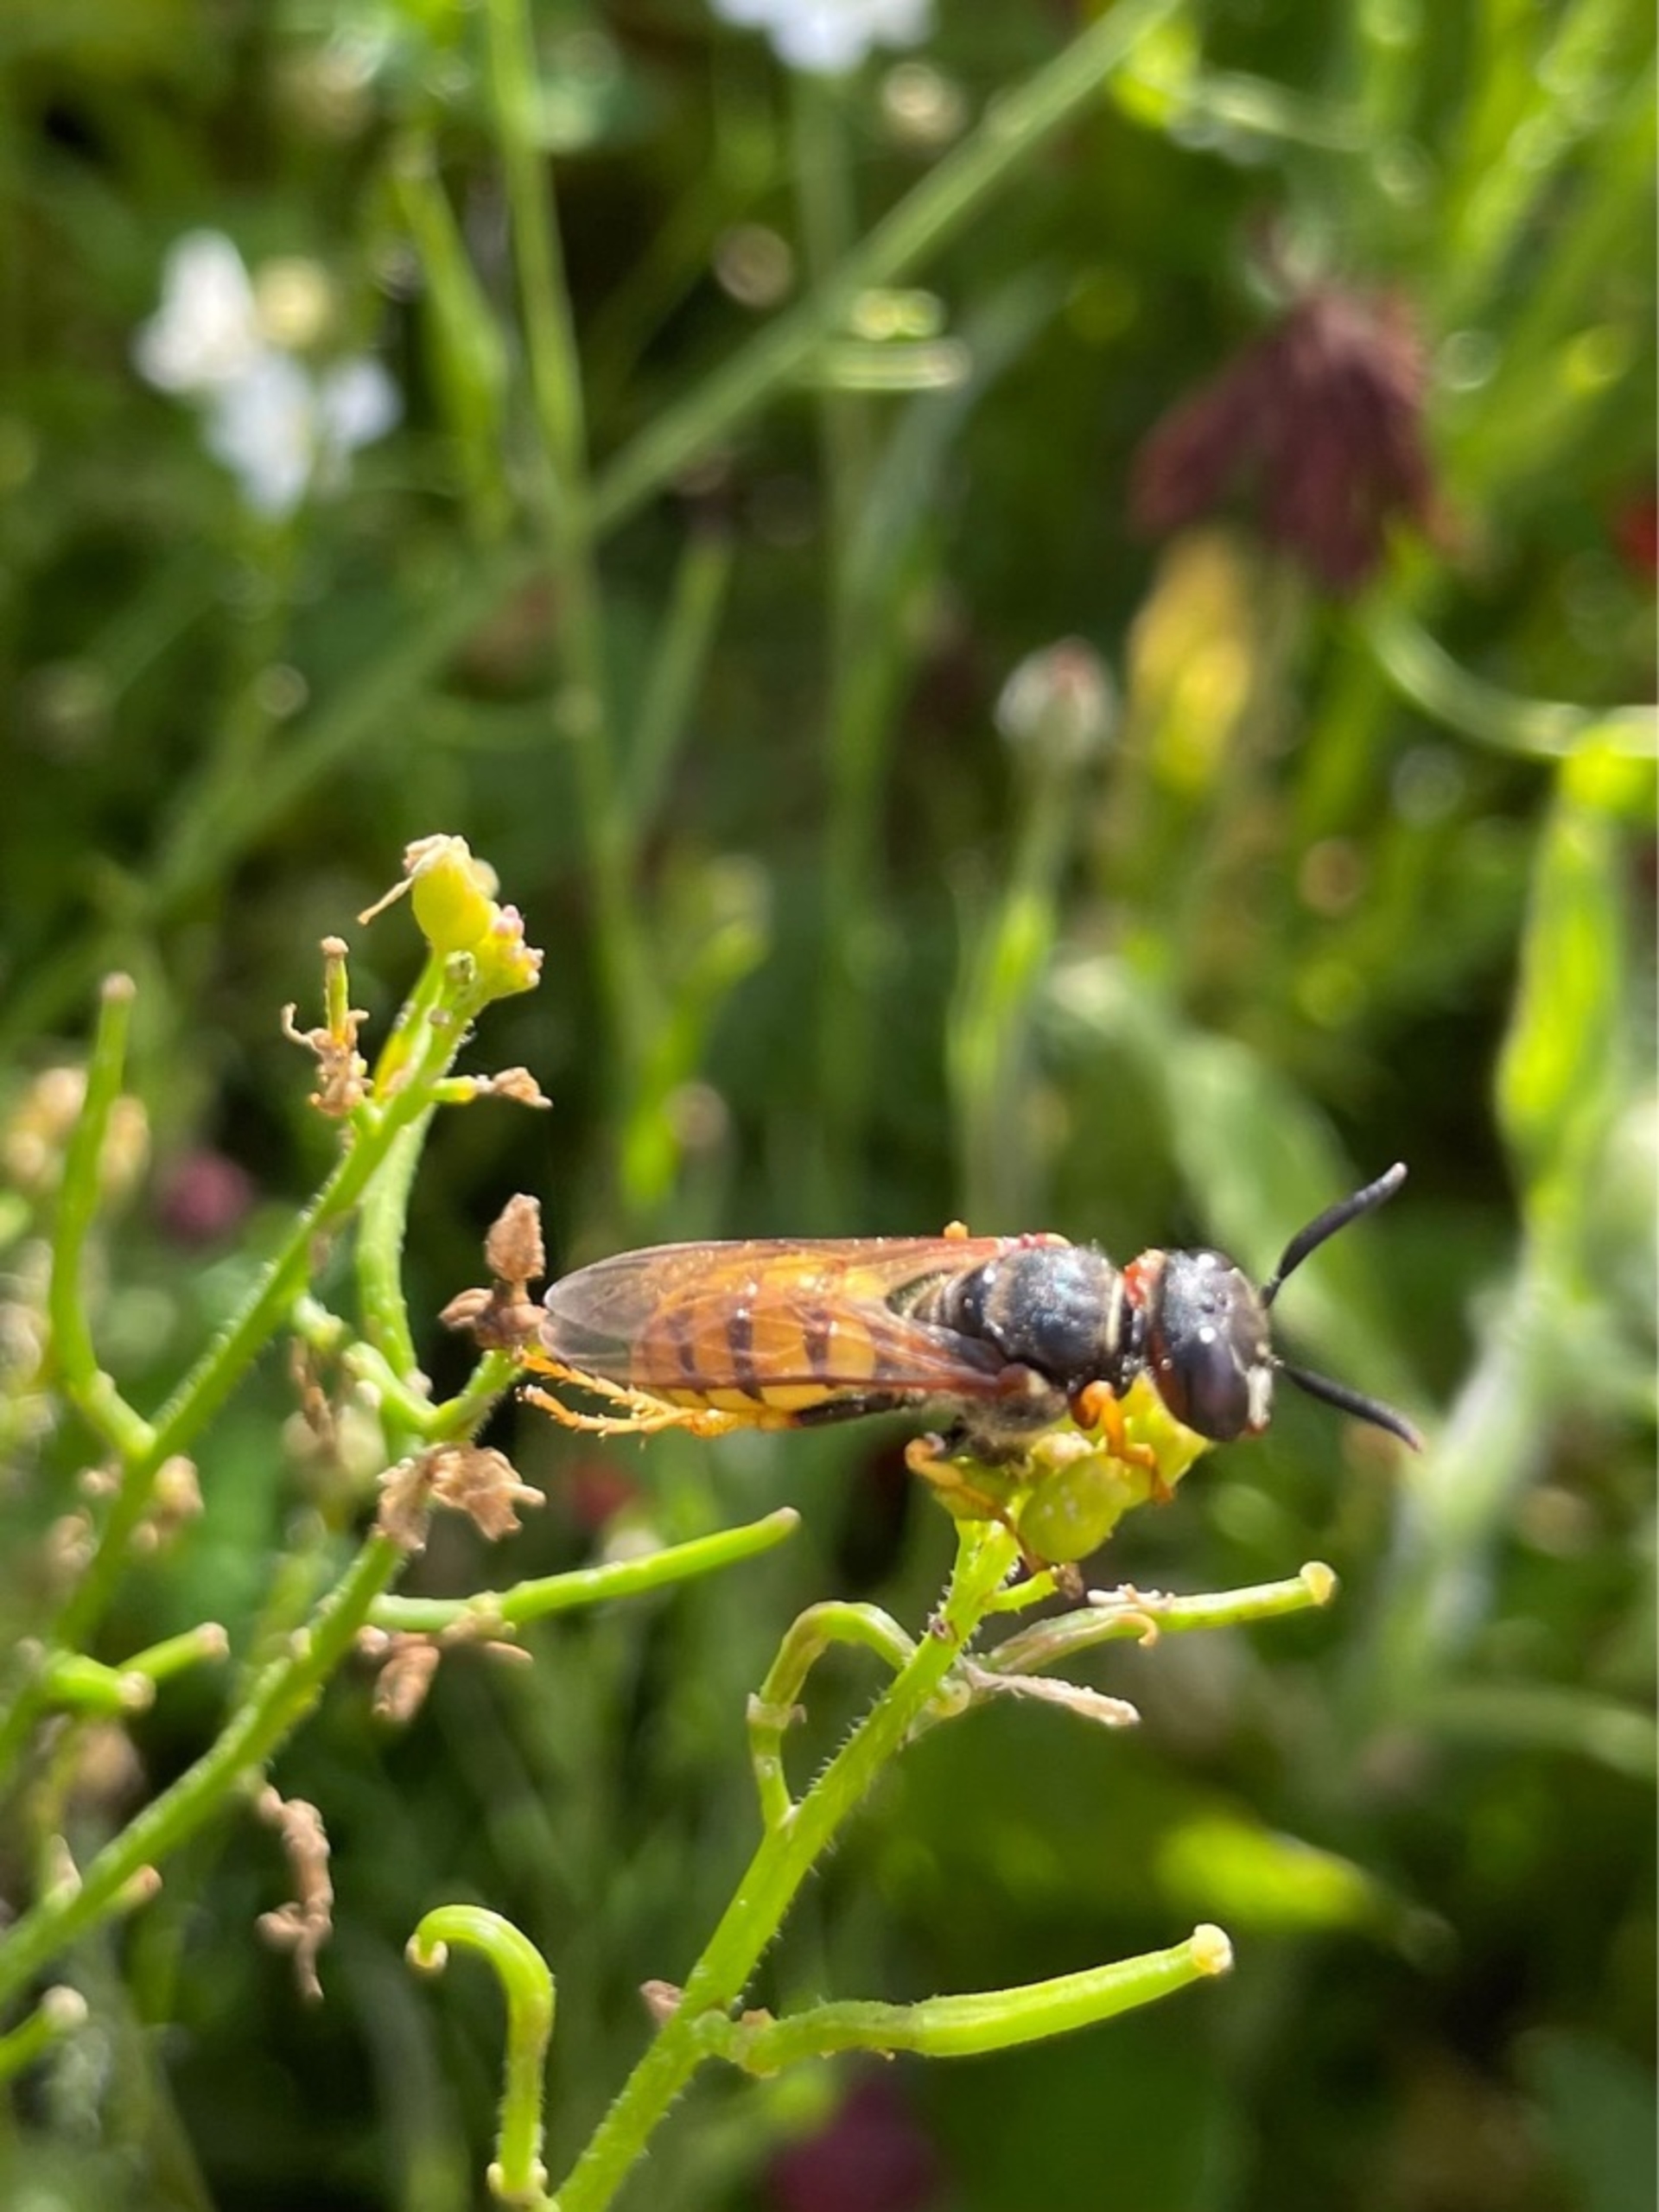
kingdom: Animalia
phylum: Arthropoda
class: Insecta
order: Hymenoptera
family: Crabronidae
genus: Philanthus
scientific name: Philanthus triangulum
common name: Biulv
